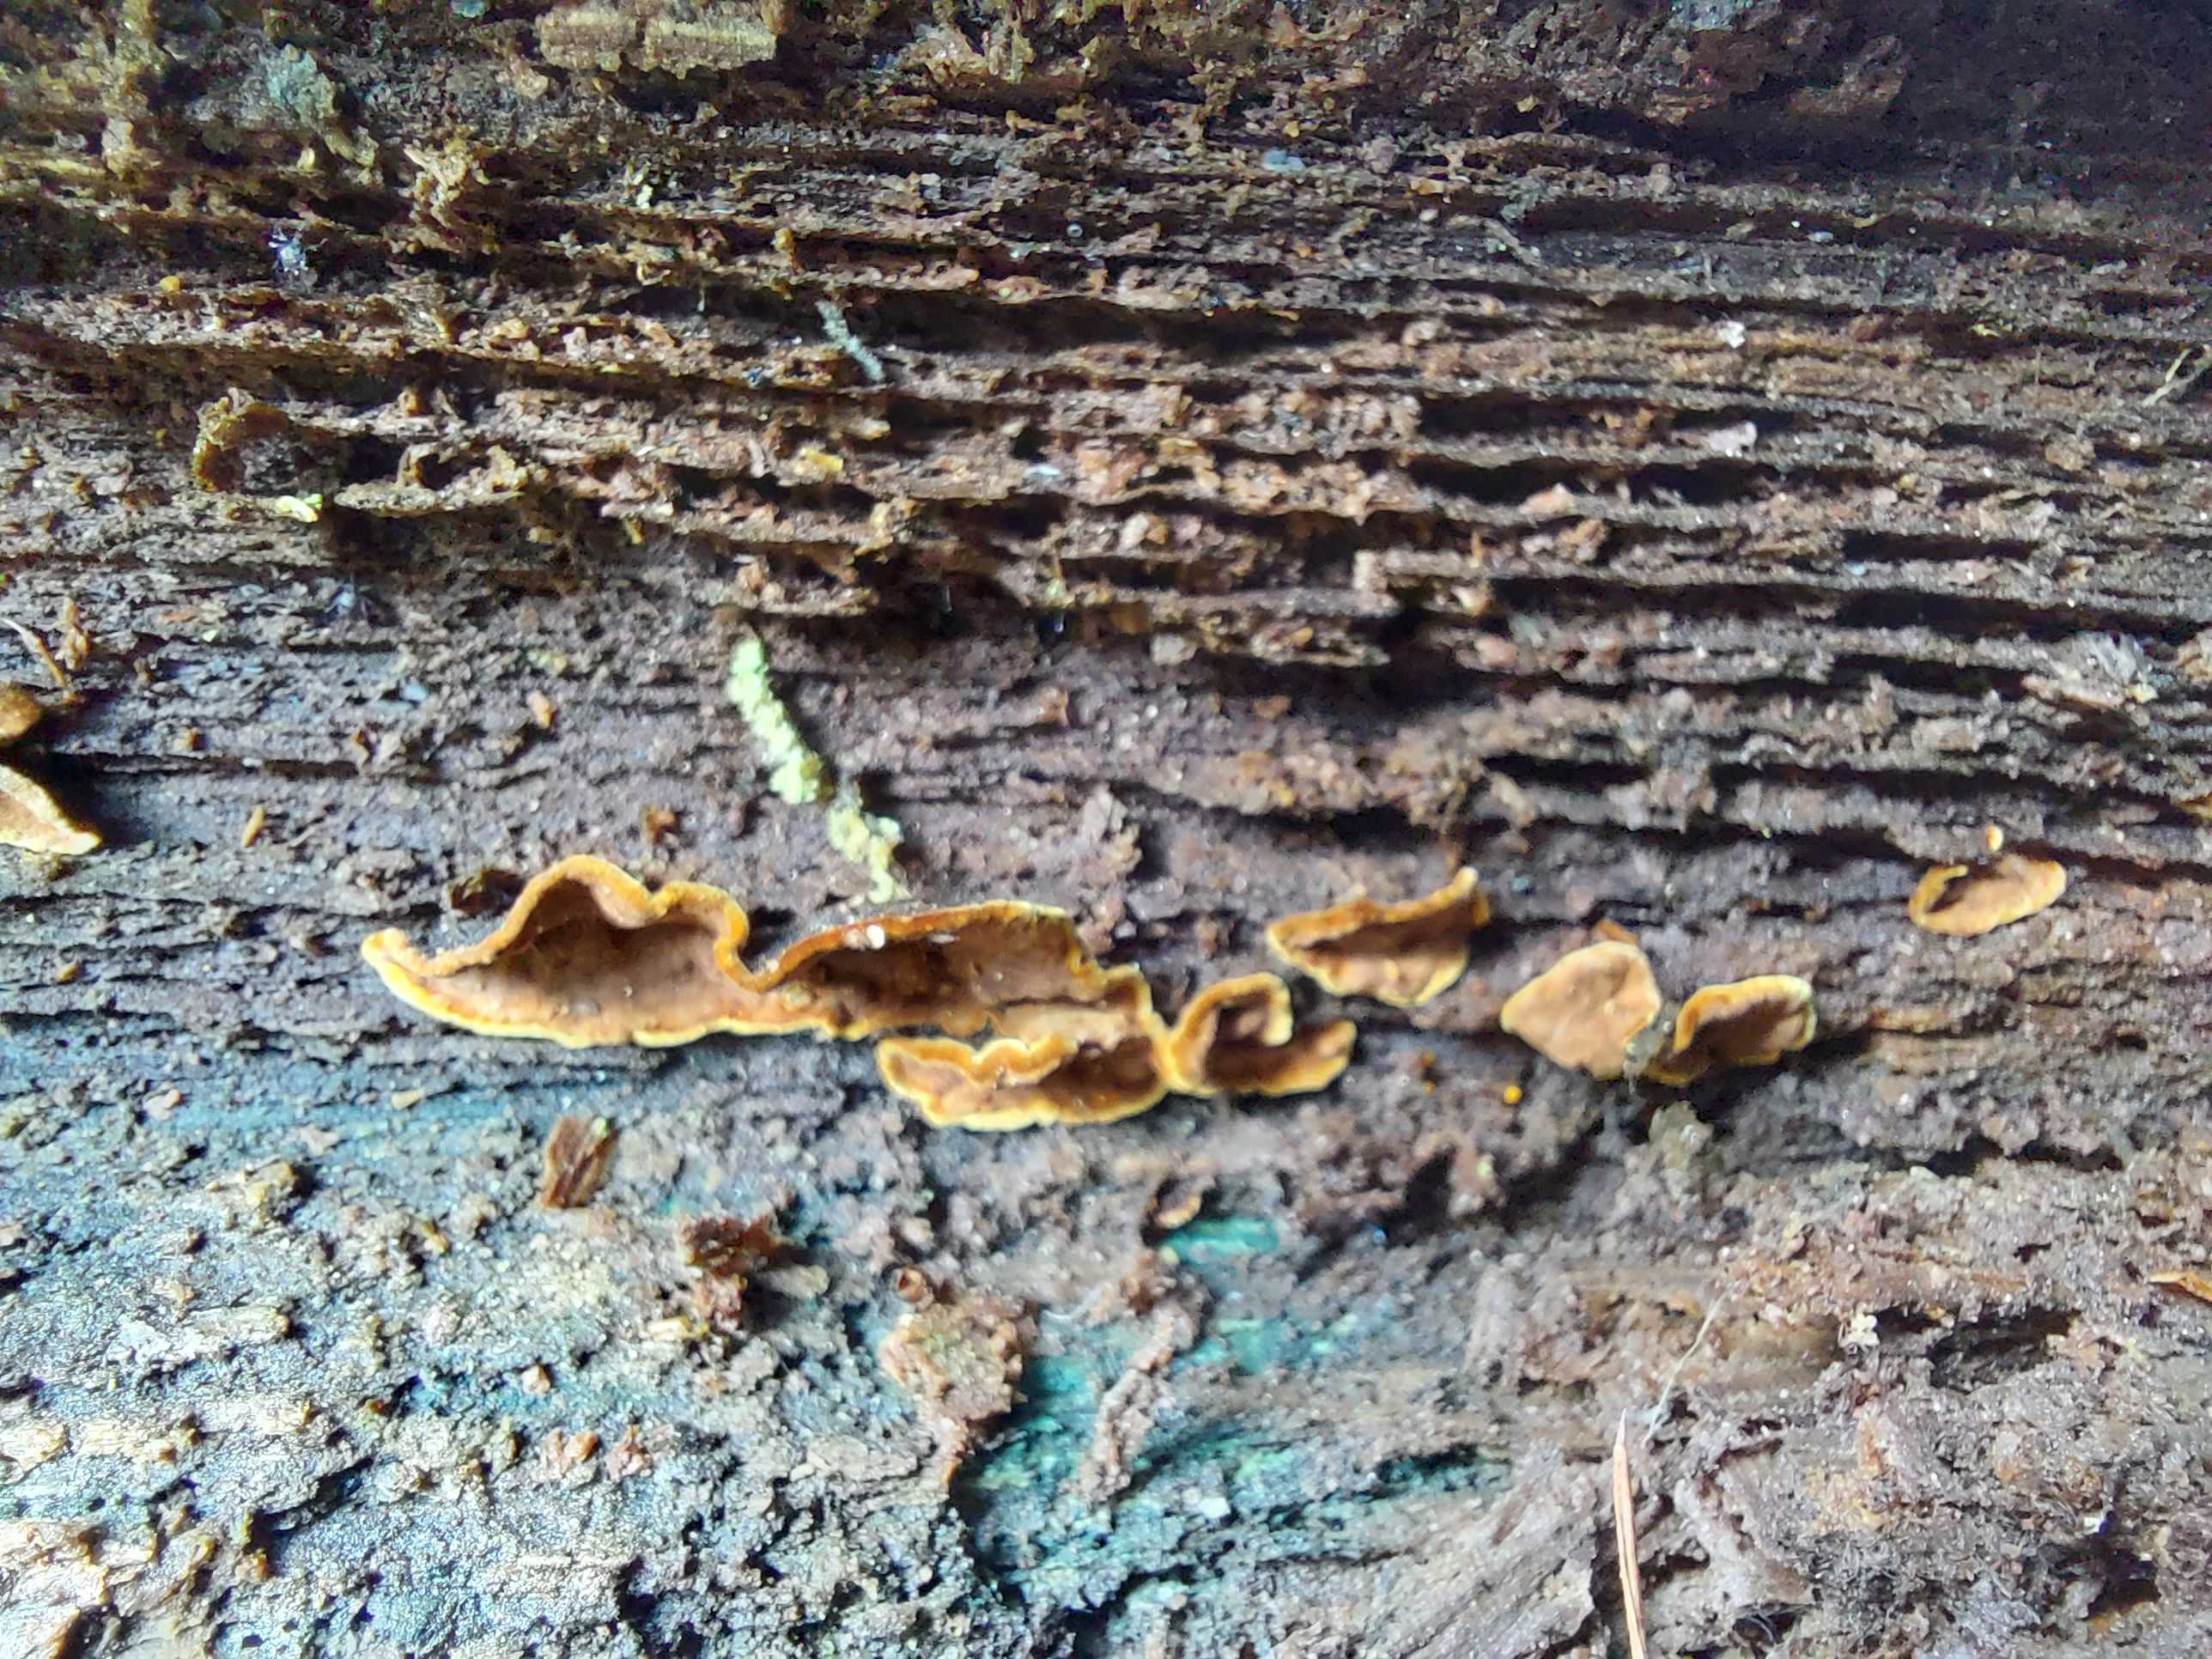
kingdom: Fungi
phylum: Basidiomycota
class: Agaricomycetes
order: Hymenochaetales
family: Hymenochaetaceae
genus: Hymenochaete
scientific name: Hymenochaete rubiginosa
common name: stiv ruslædersvamp
